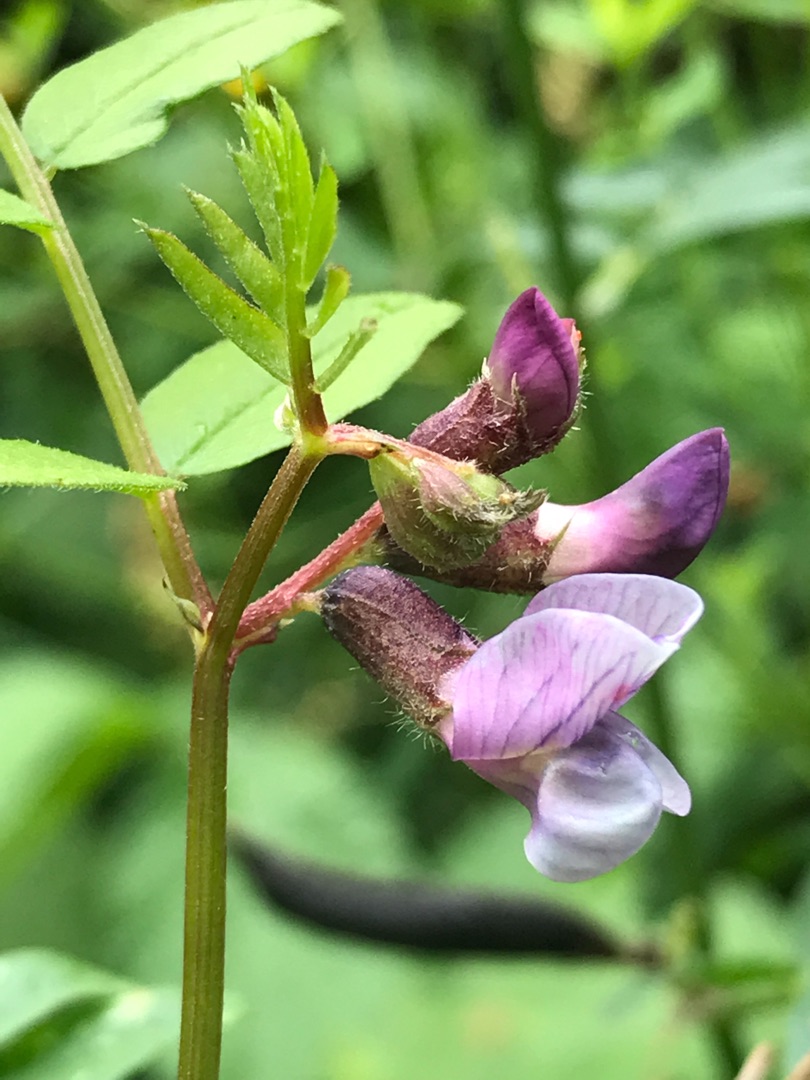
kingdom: Plantae
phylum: Tracheophyta
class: Magnoliopsida
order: Fabales
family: Fabaceae
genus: Vicia
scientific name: Vicia sepium
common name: Gærde-vikke
